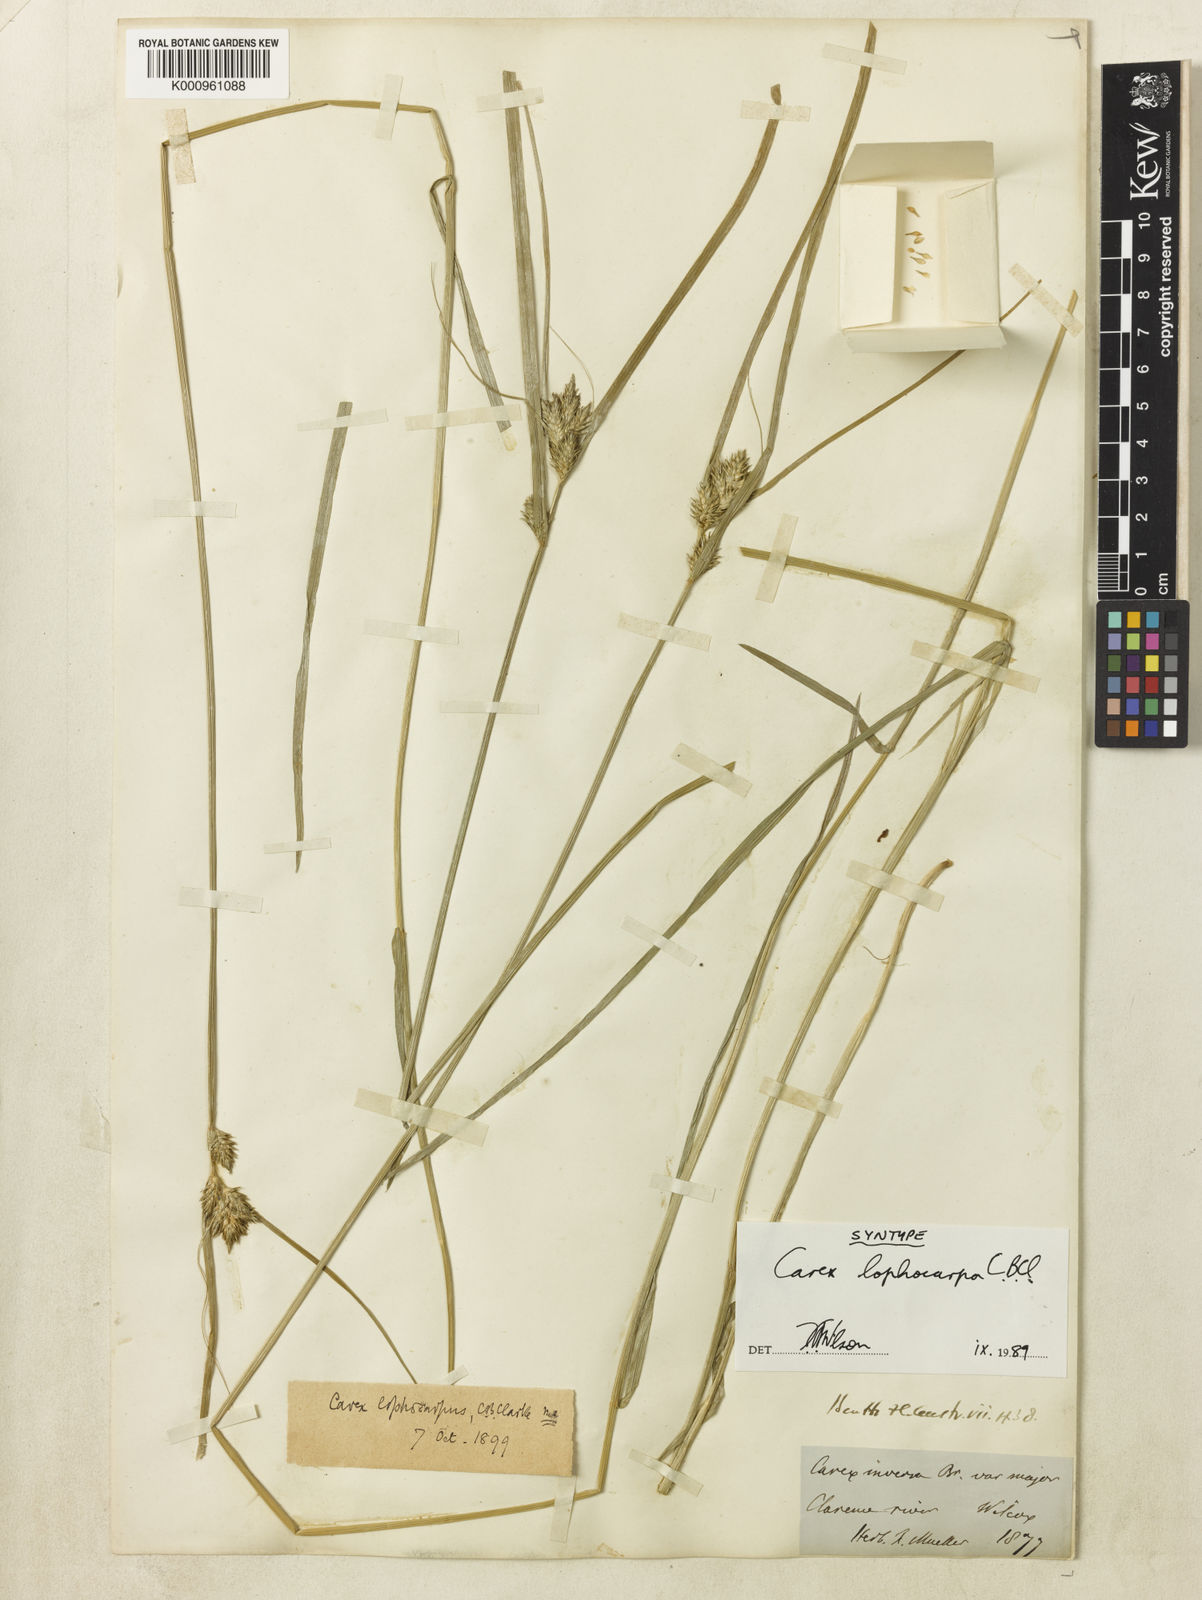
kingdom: Plantae
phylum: Tracheophyta
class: Liliopsida
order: Poales
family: Cyperaceae
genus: Carex
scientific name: Carex lophocarpa
